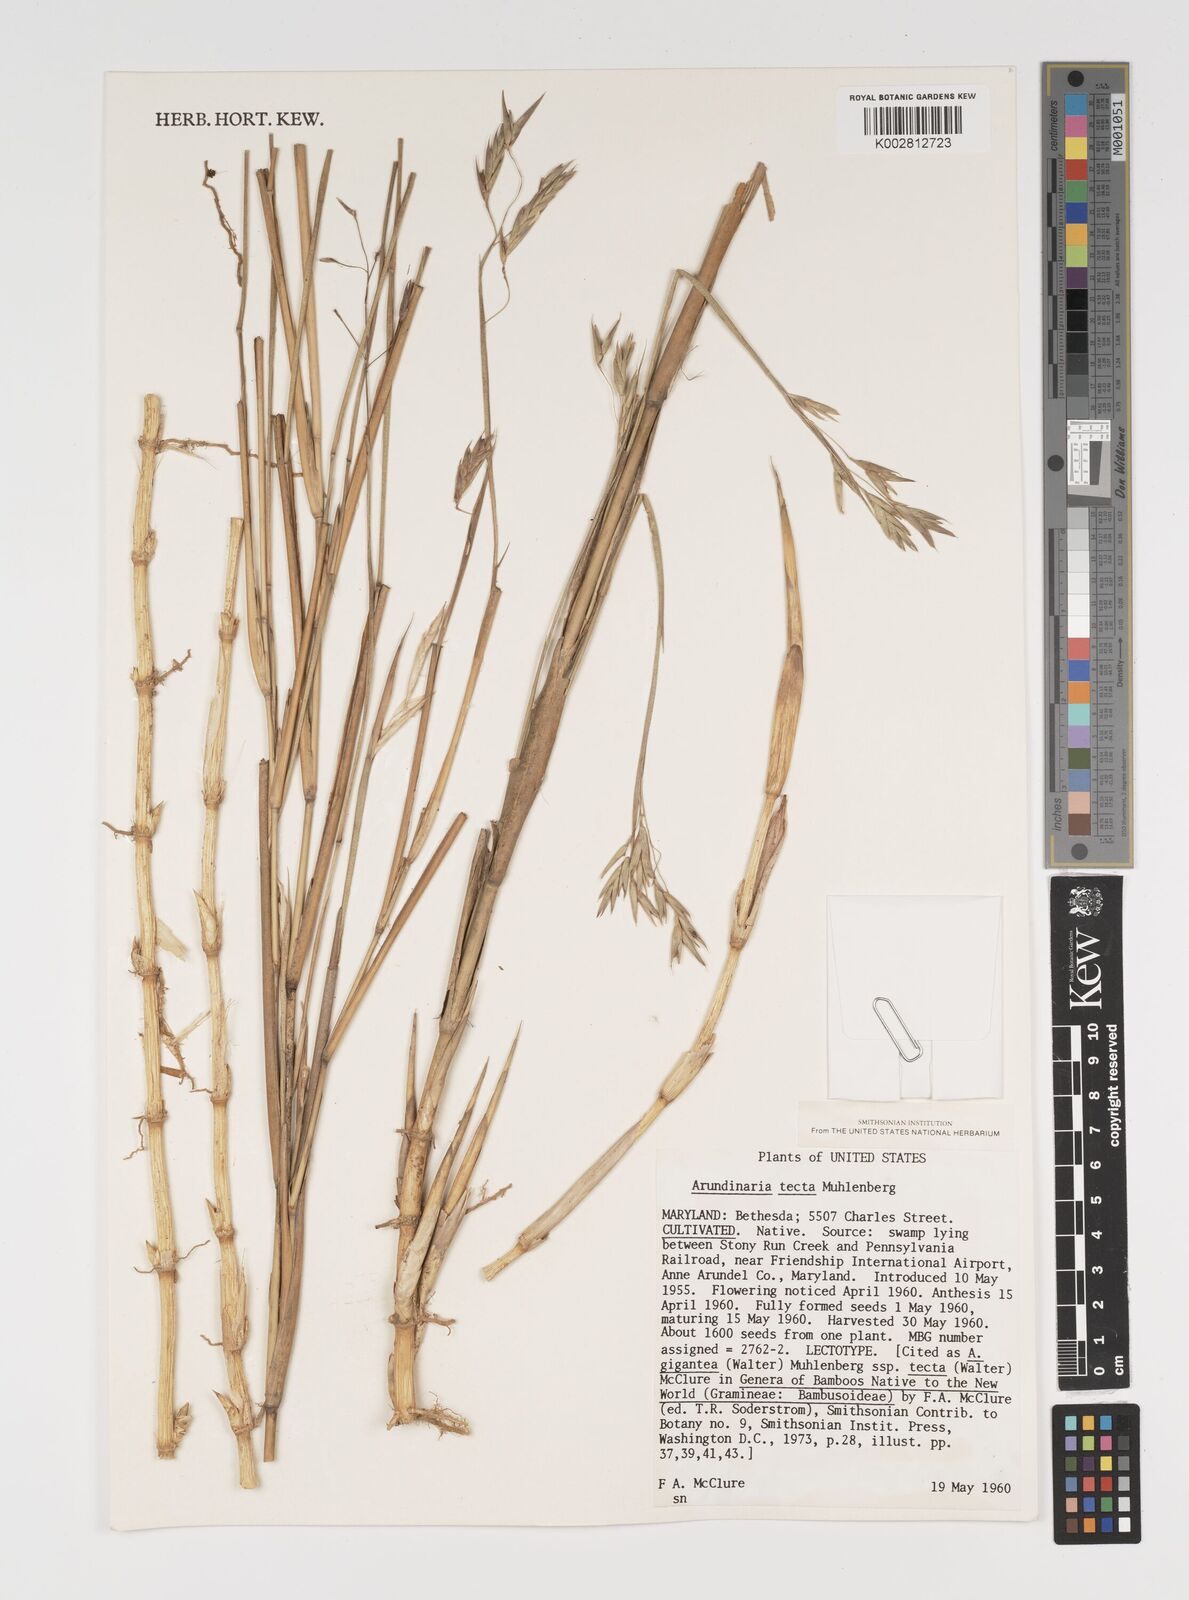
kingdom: Plantae
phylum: Tracheophyta
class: Liliopsida
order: Poales
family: Poaceae
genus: Arundinaria
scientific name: Arundinaria tecta
